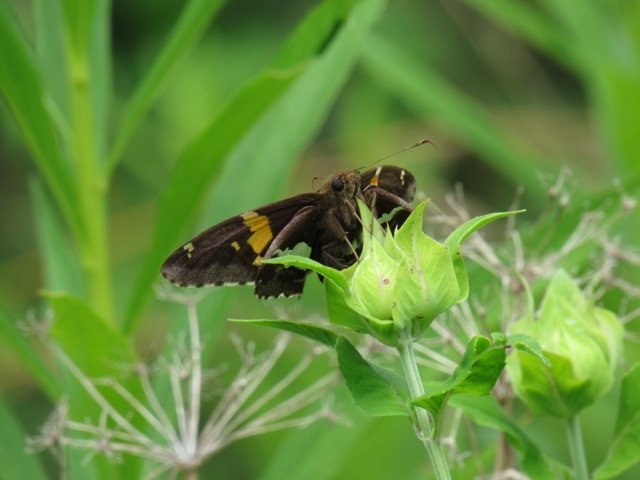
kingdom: Animalia
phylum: Arthropoda
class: Insecta
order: Lepidoptera
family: Hesperiidae
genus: Epargyreus
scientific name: Epargyreus clarus
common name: Silver-spotted Skipper
